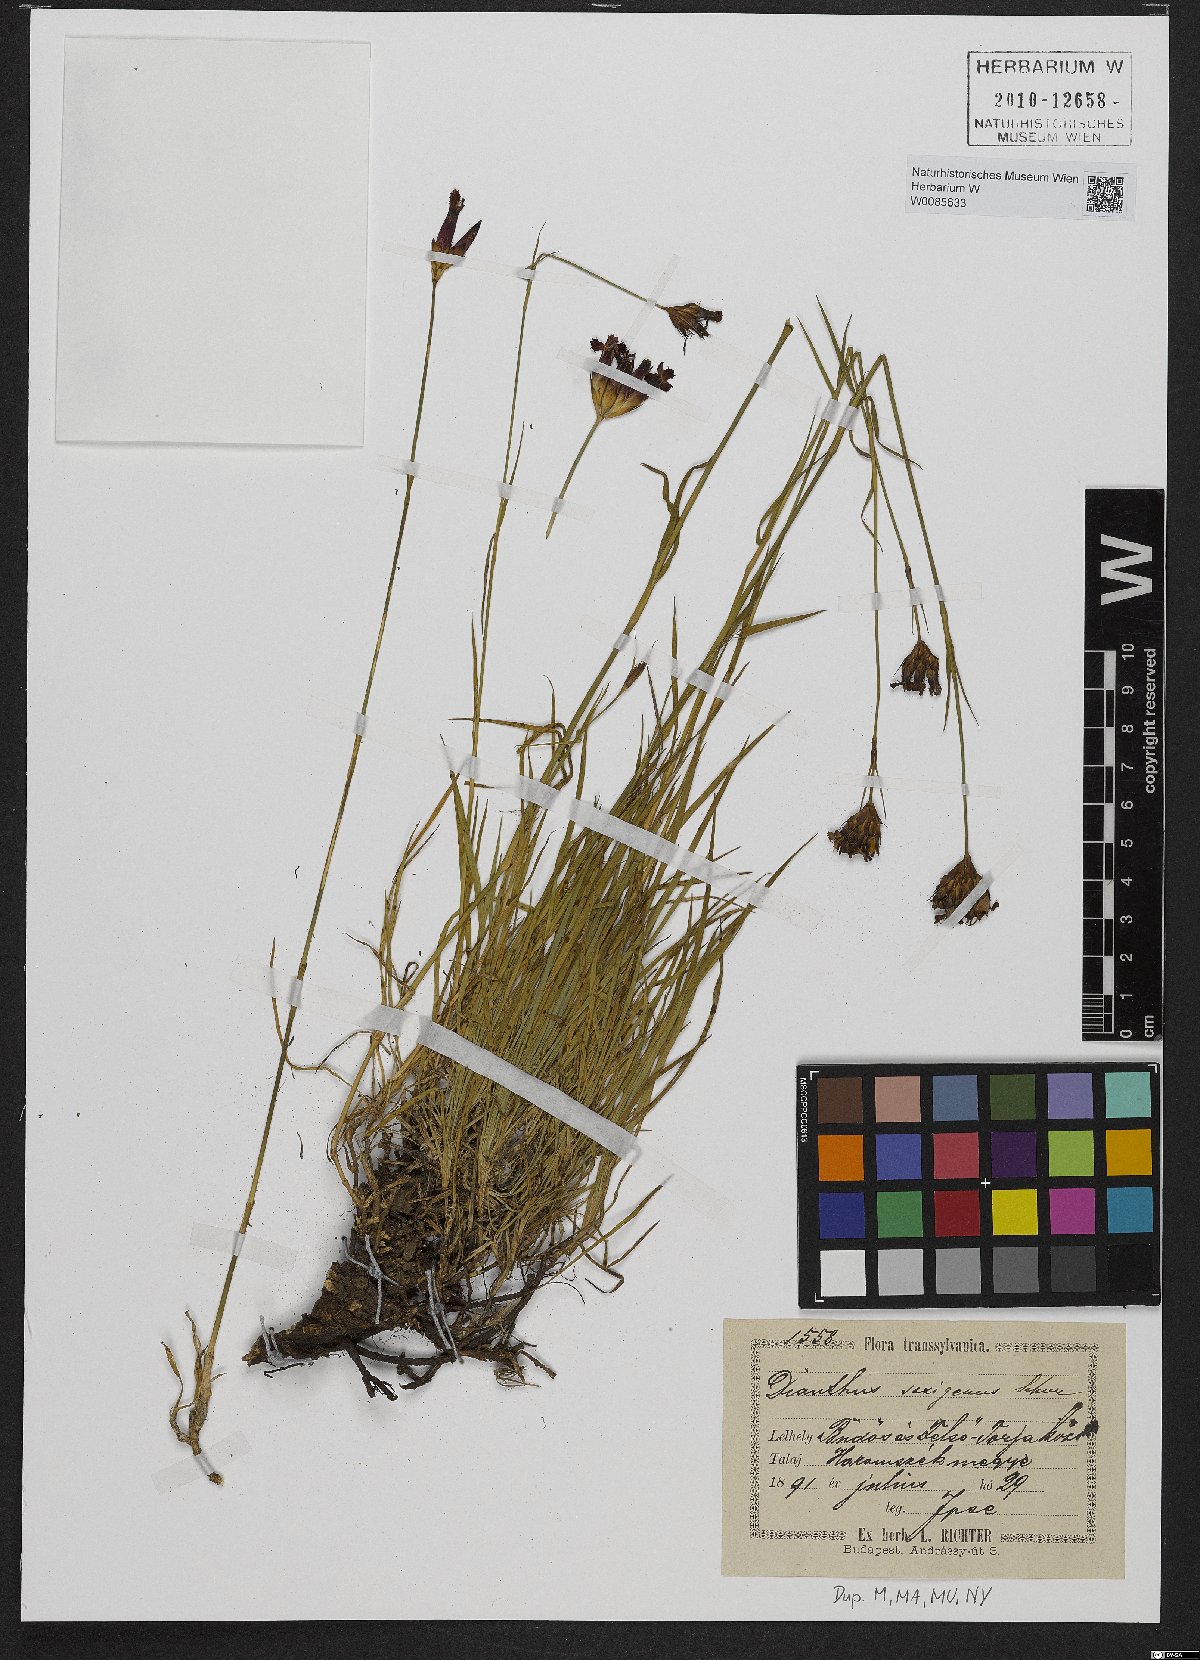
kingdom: Plantae
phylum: Tracheophyta
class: Magnoliopsida
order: Caryophyllales
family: Caryophyllaceae
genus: Dianthus
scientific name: Dianthus
